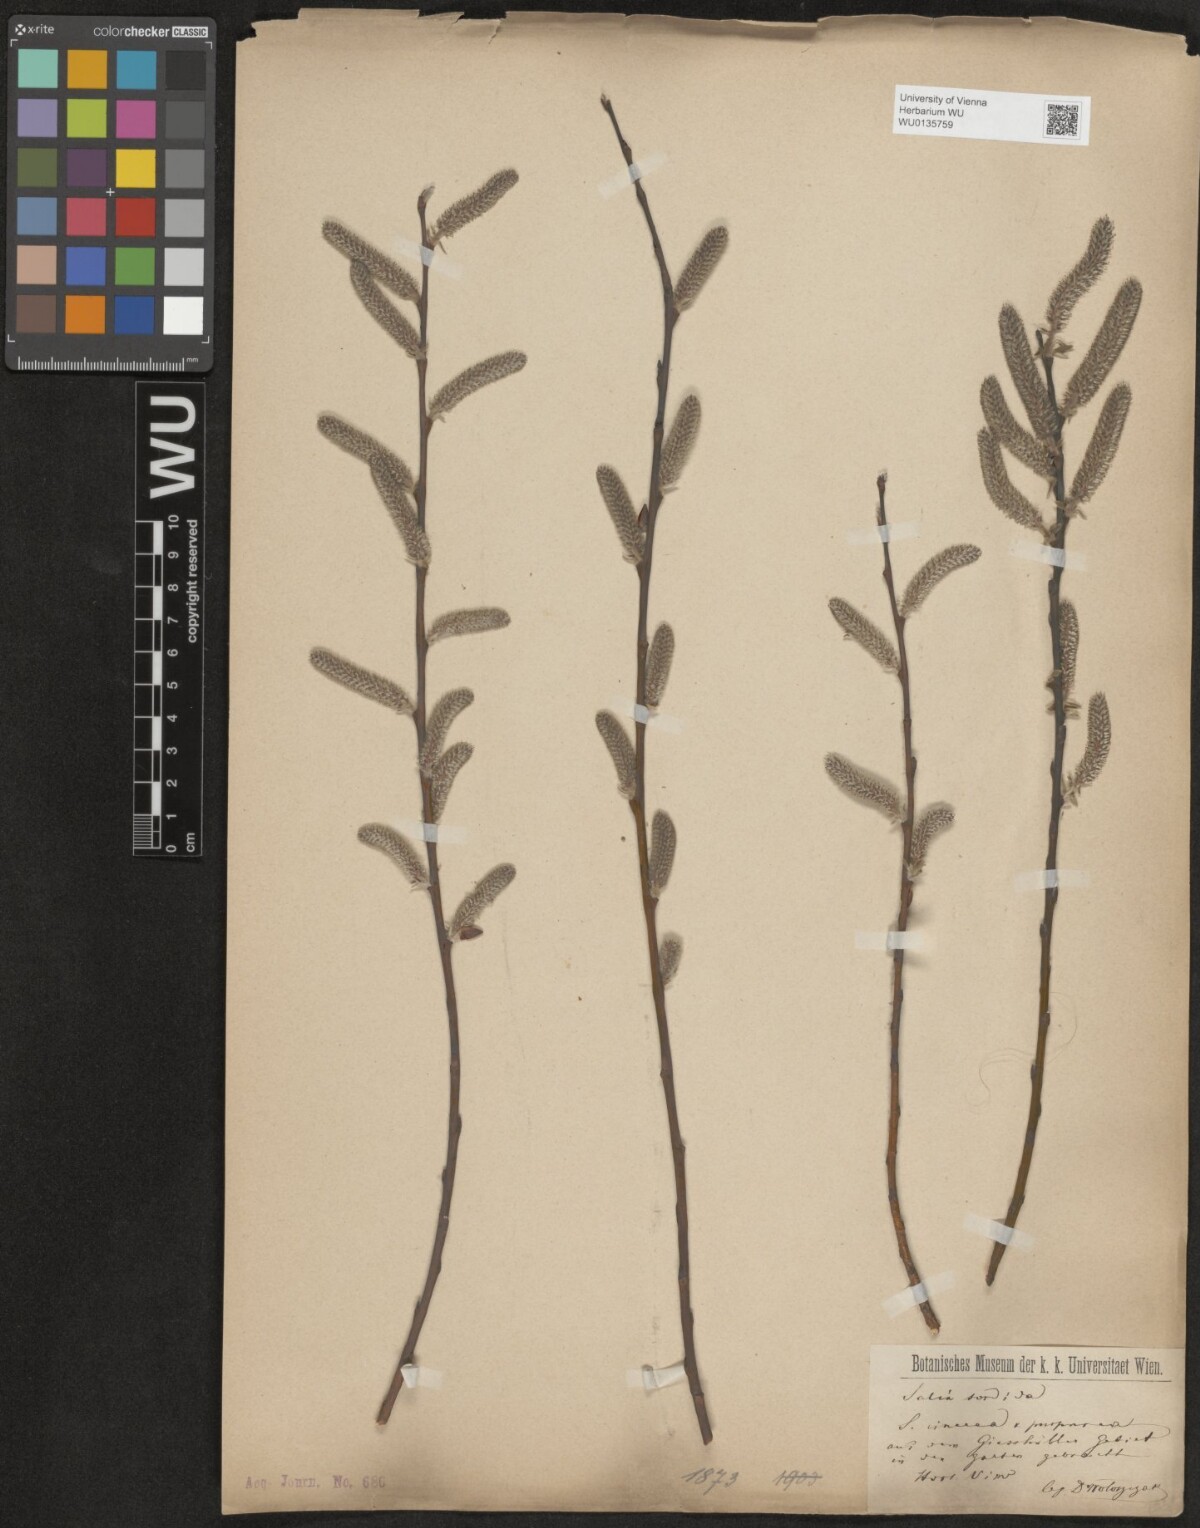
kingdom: Plantae
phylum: Tracheophyta
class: Magnoliopsida
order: Malpighiales
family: Salicaceae
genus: Salix
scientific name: Salix cinerea
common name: Common sallow
